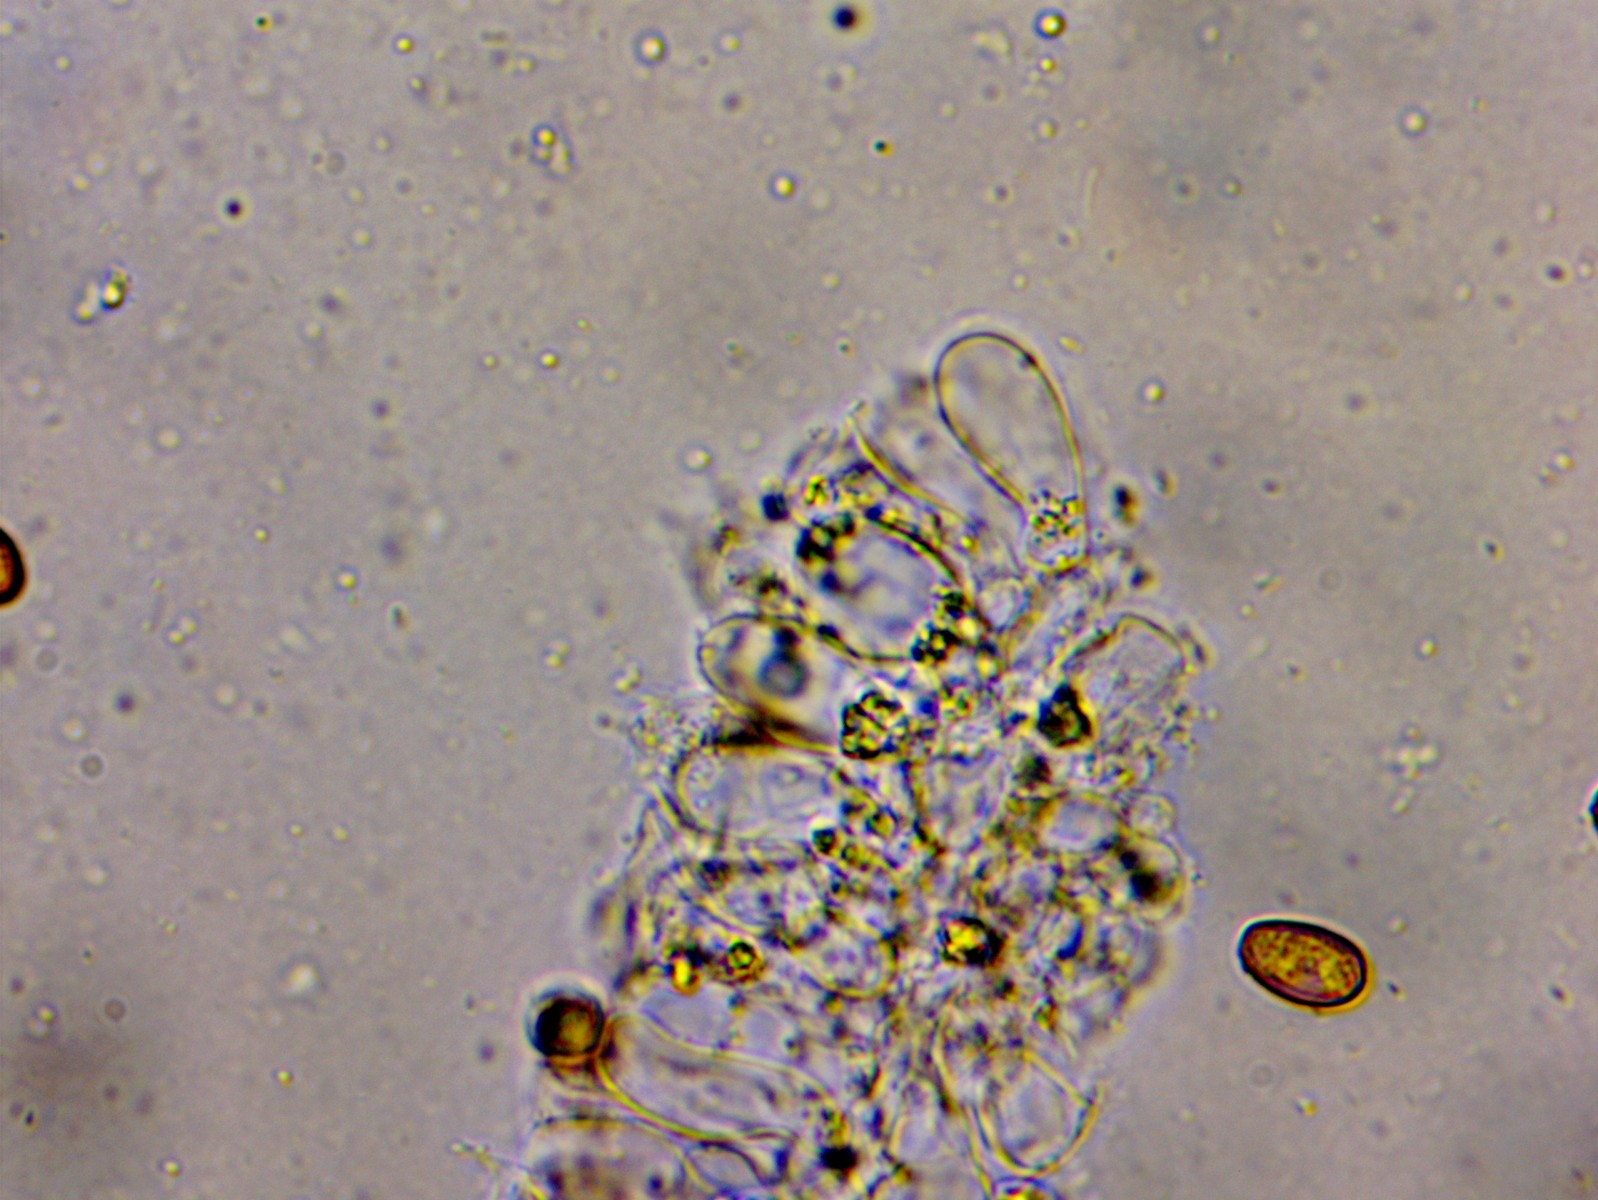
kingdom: Fungi
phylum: Basidiomycota
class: Agaricomycetes
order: Agaricales
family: Psathyrellaceae
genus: Psathyrella
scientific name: Psathyrella
